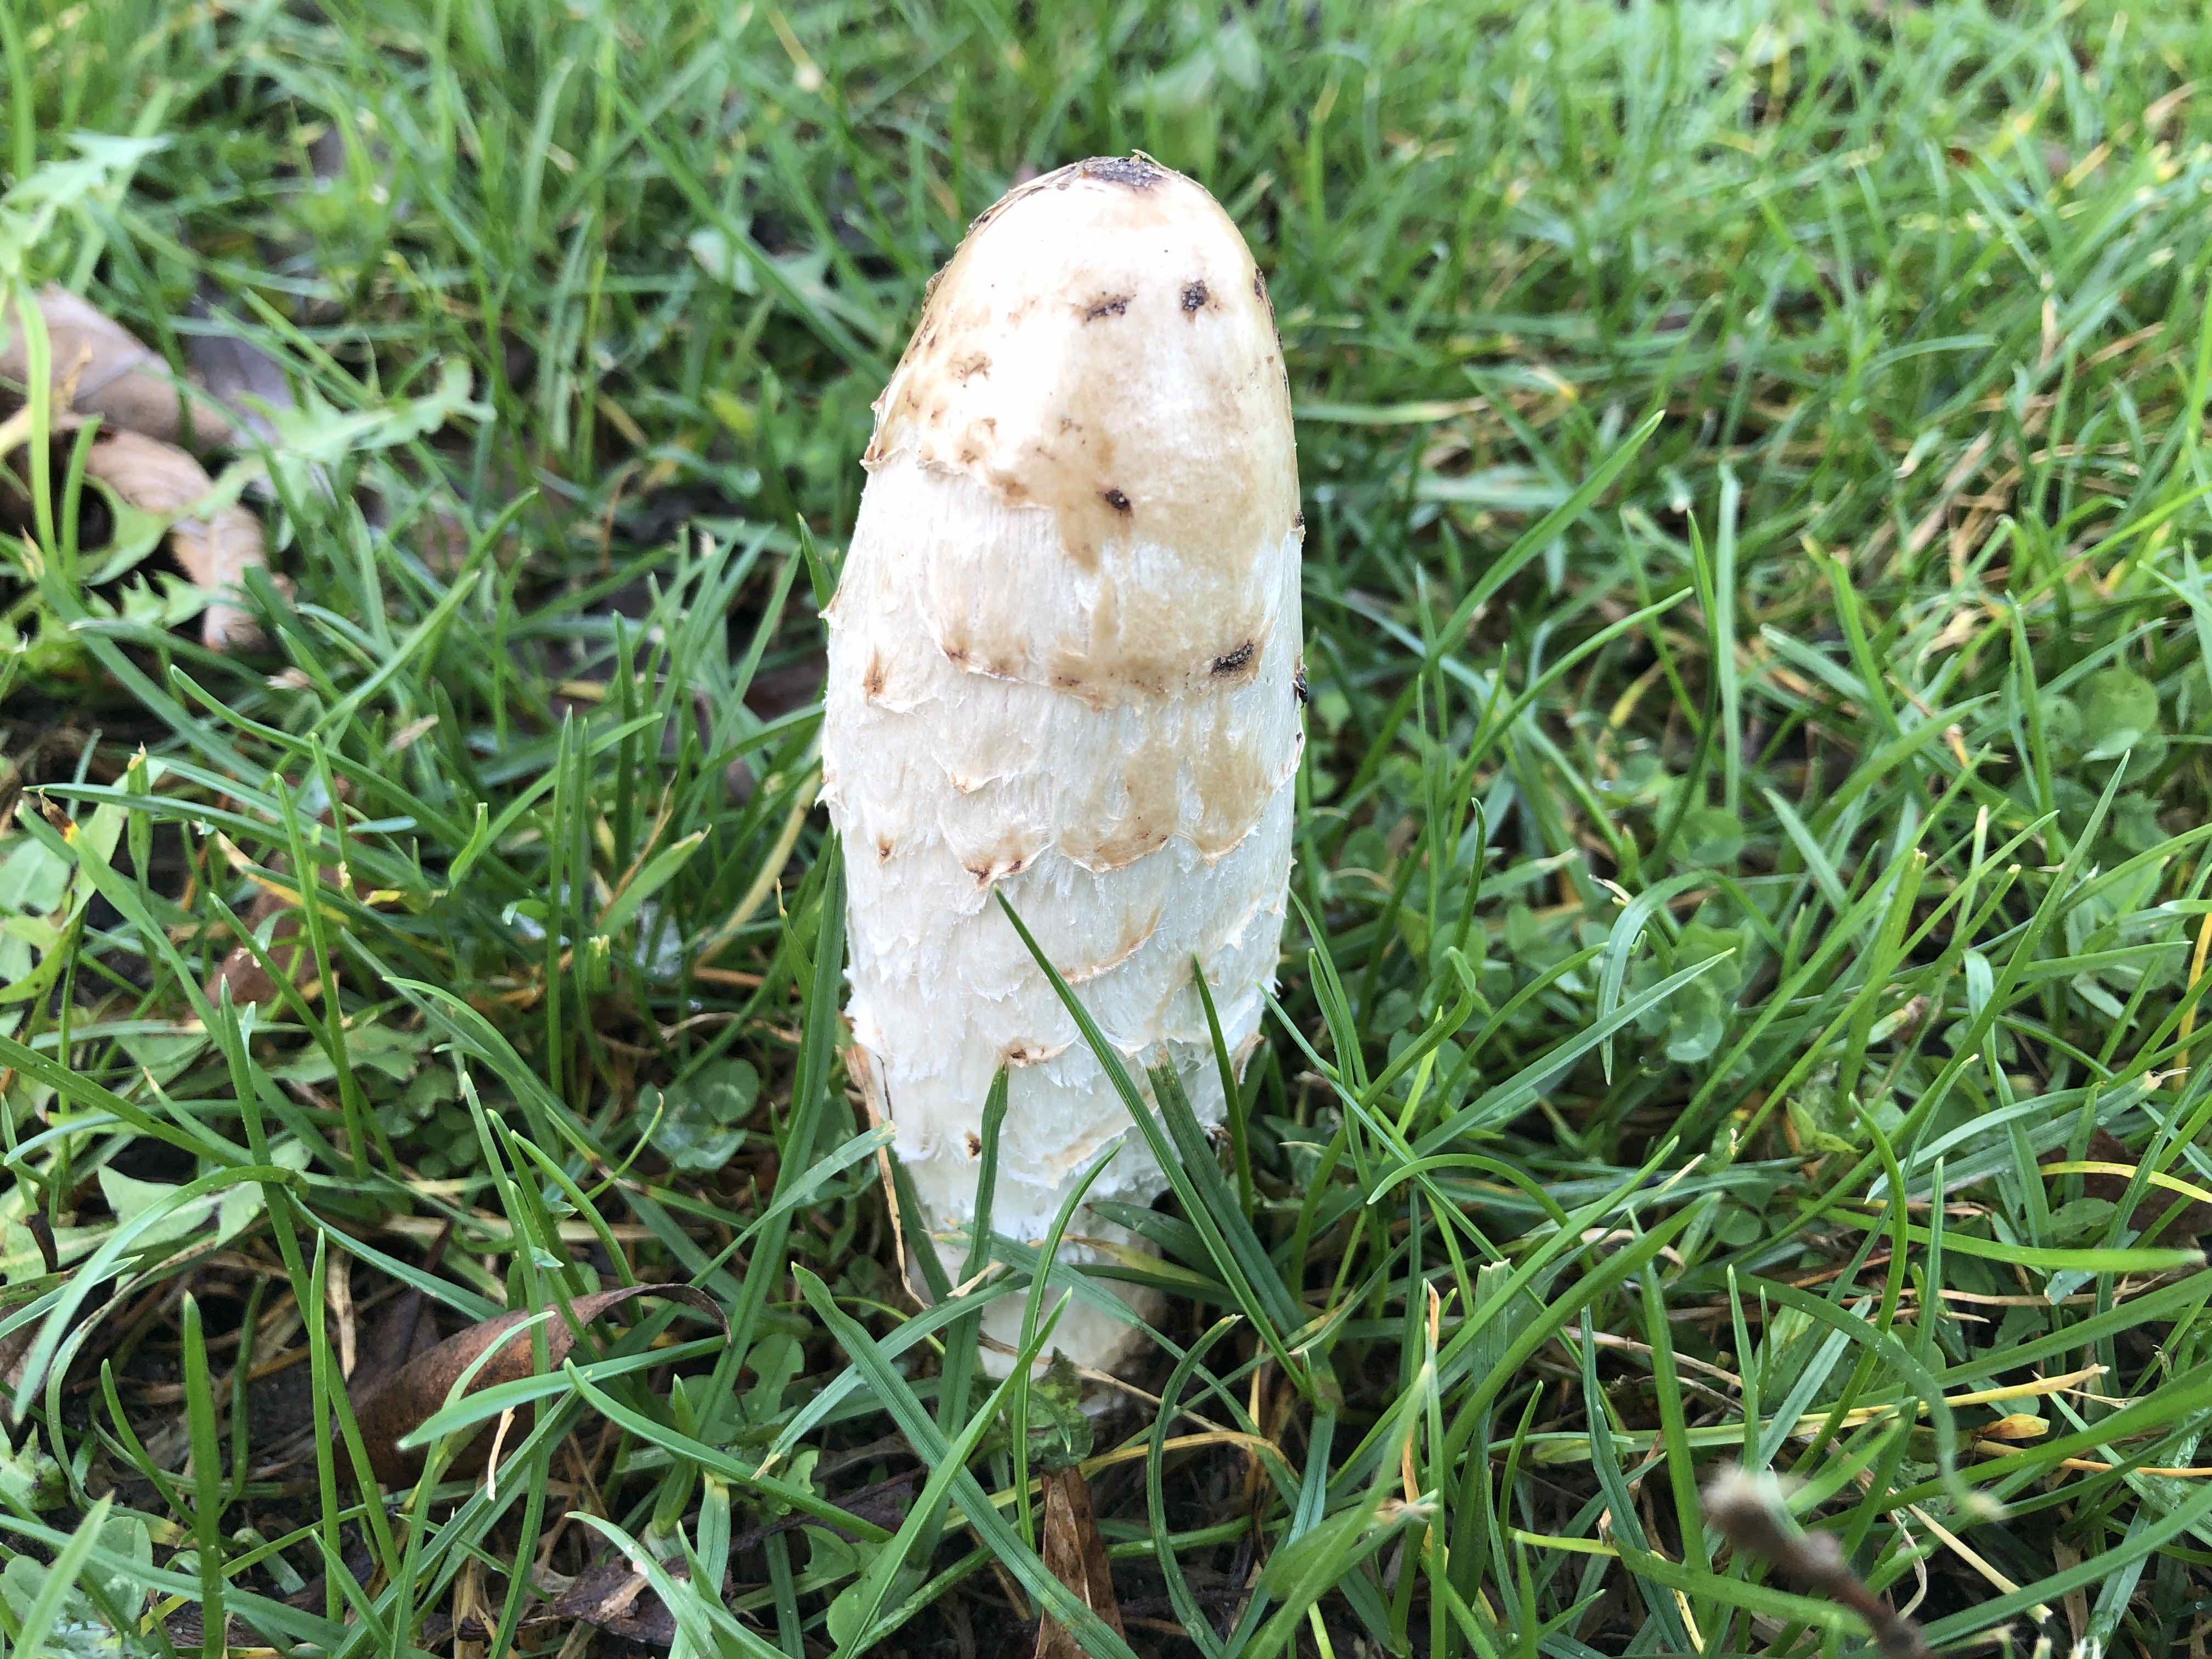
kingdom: Fungi
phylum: Basidiomycota
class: Agaricomycetes
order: Agaricales
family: Agaricaceae
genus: Coprinus
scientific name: Coprinus comatus
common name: stor parykhat
